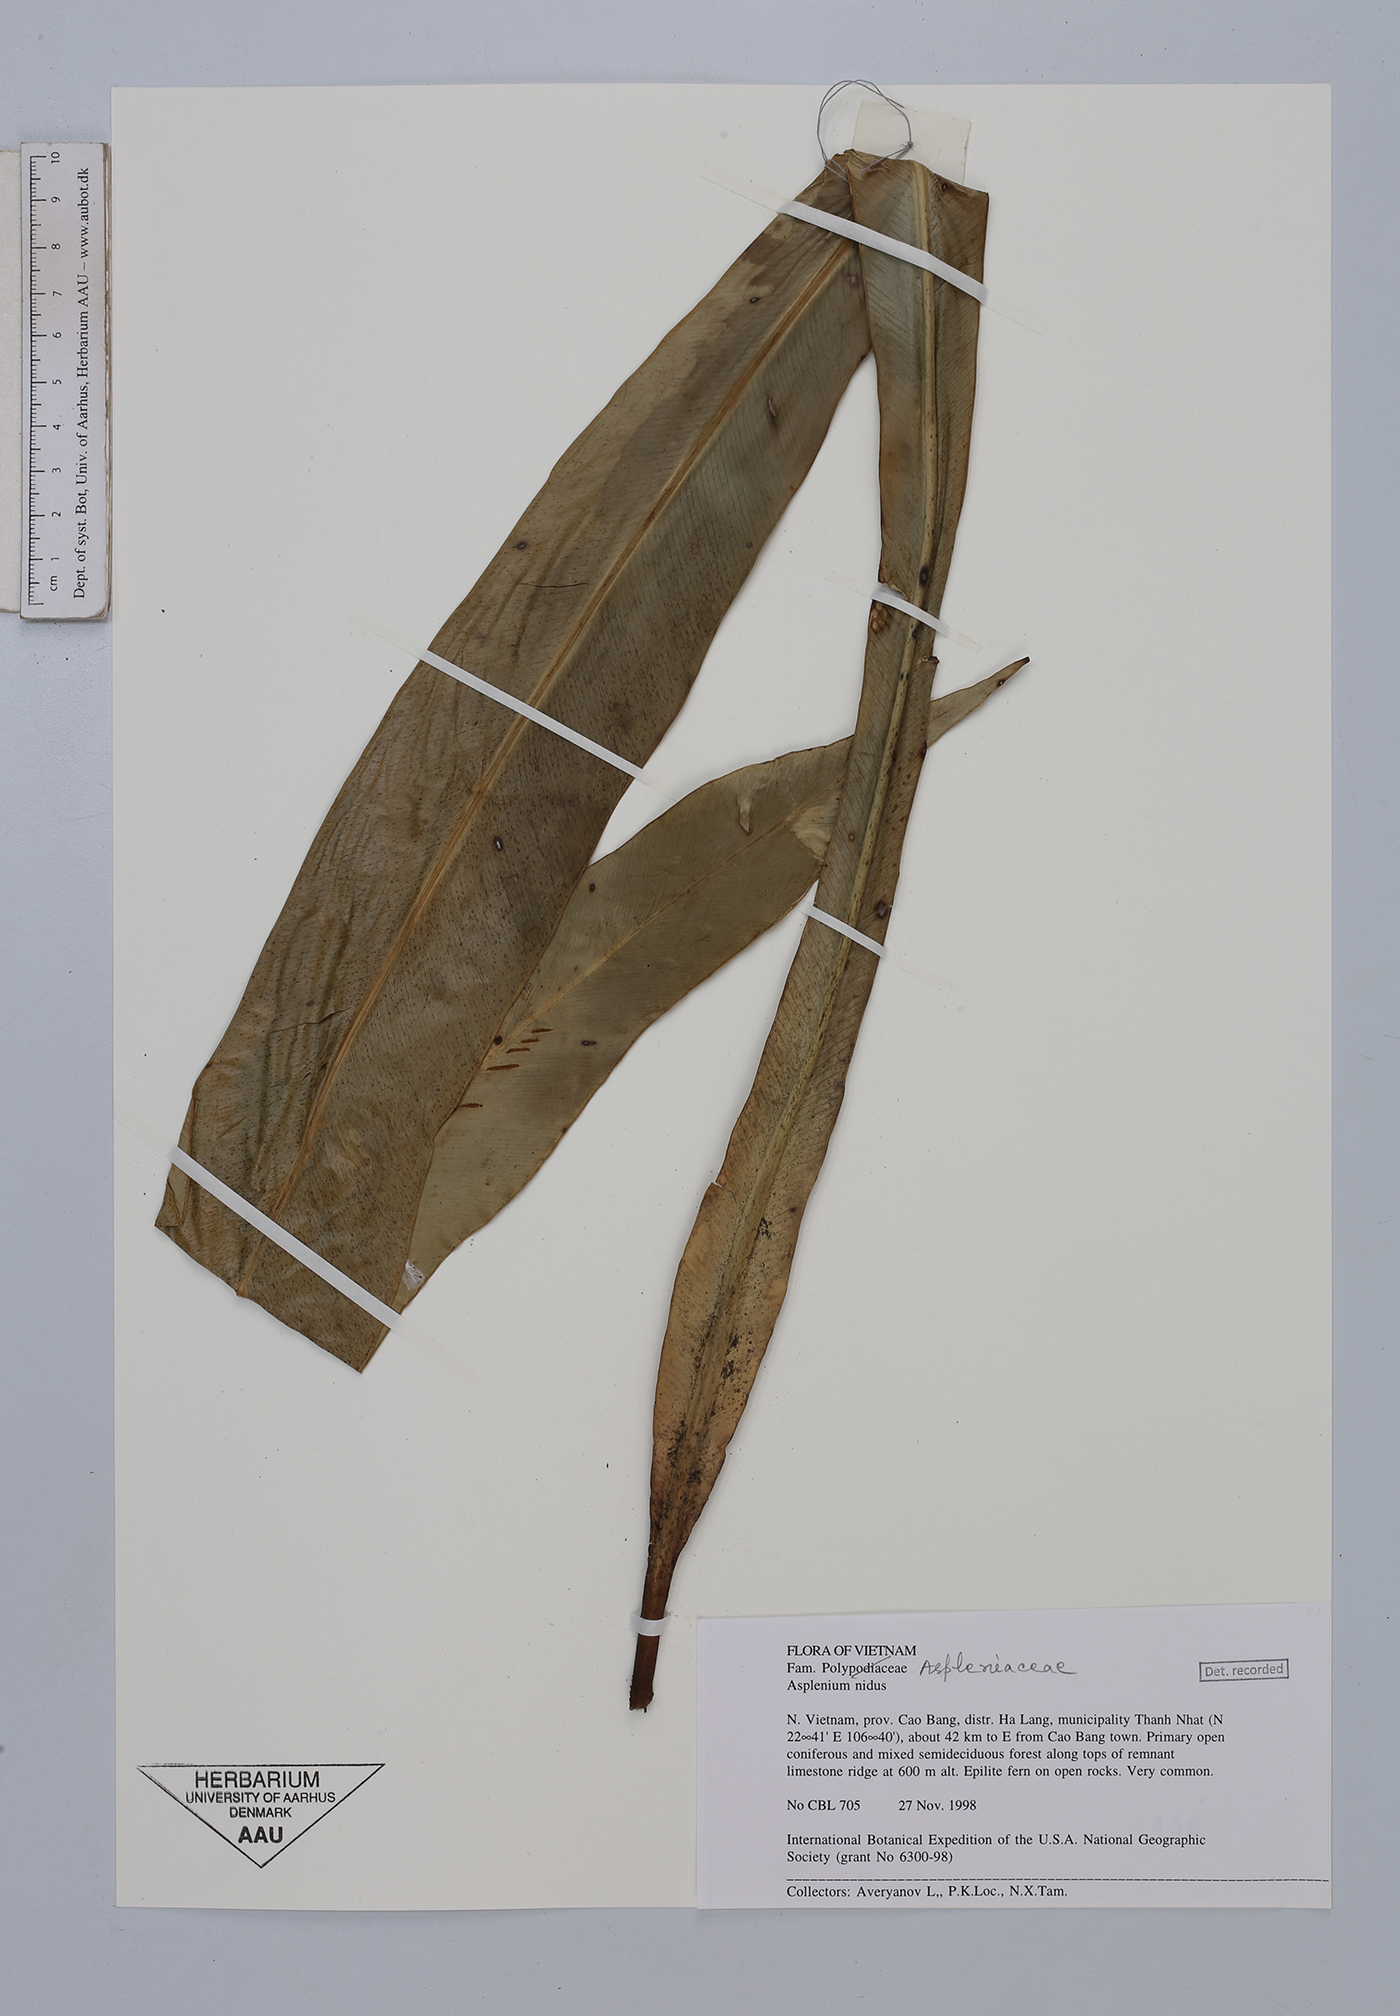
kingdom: Plantae
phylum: Tracheophyta
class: Polypodiopsida
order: Polypodiales
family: Aspleniaceae
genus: Asplenium
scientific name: Asplenium nidus
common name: Bird's-nest fern
